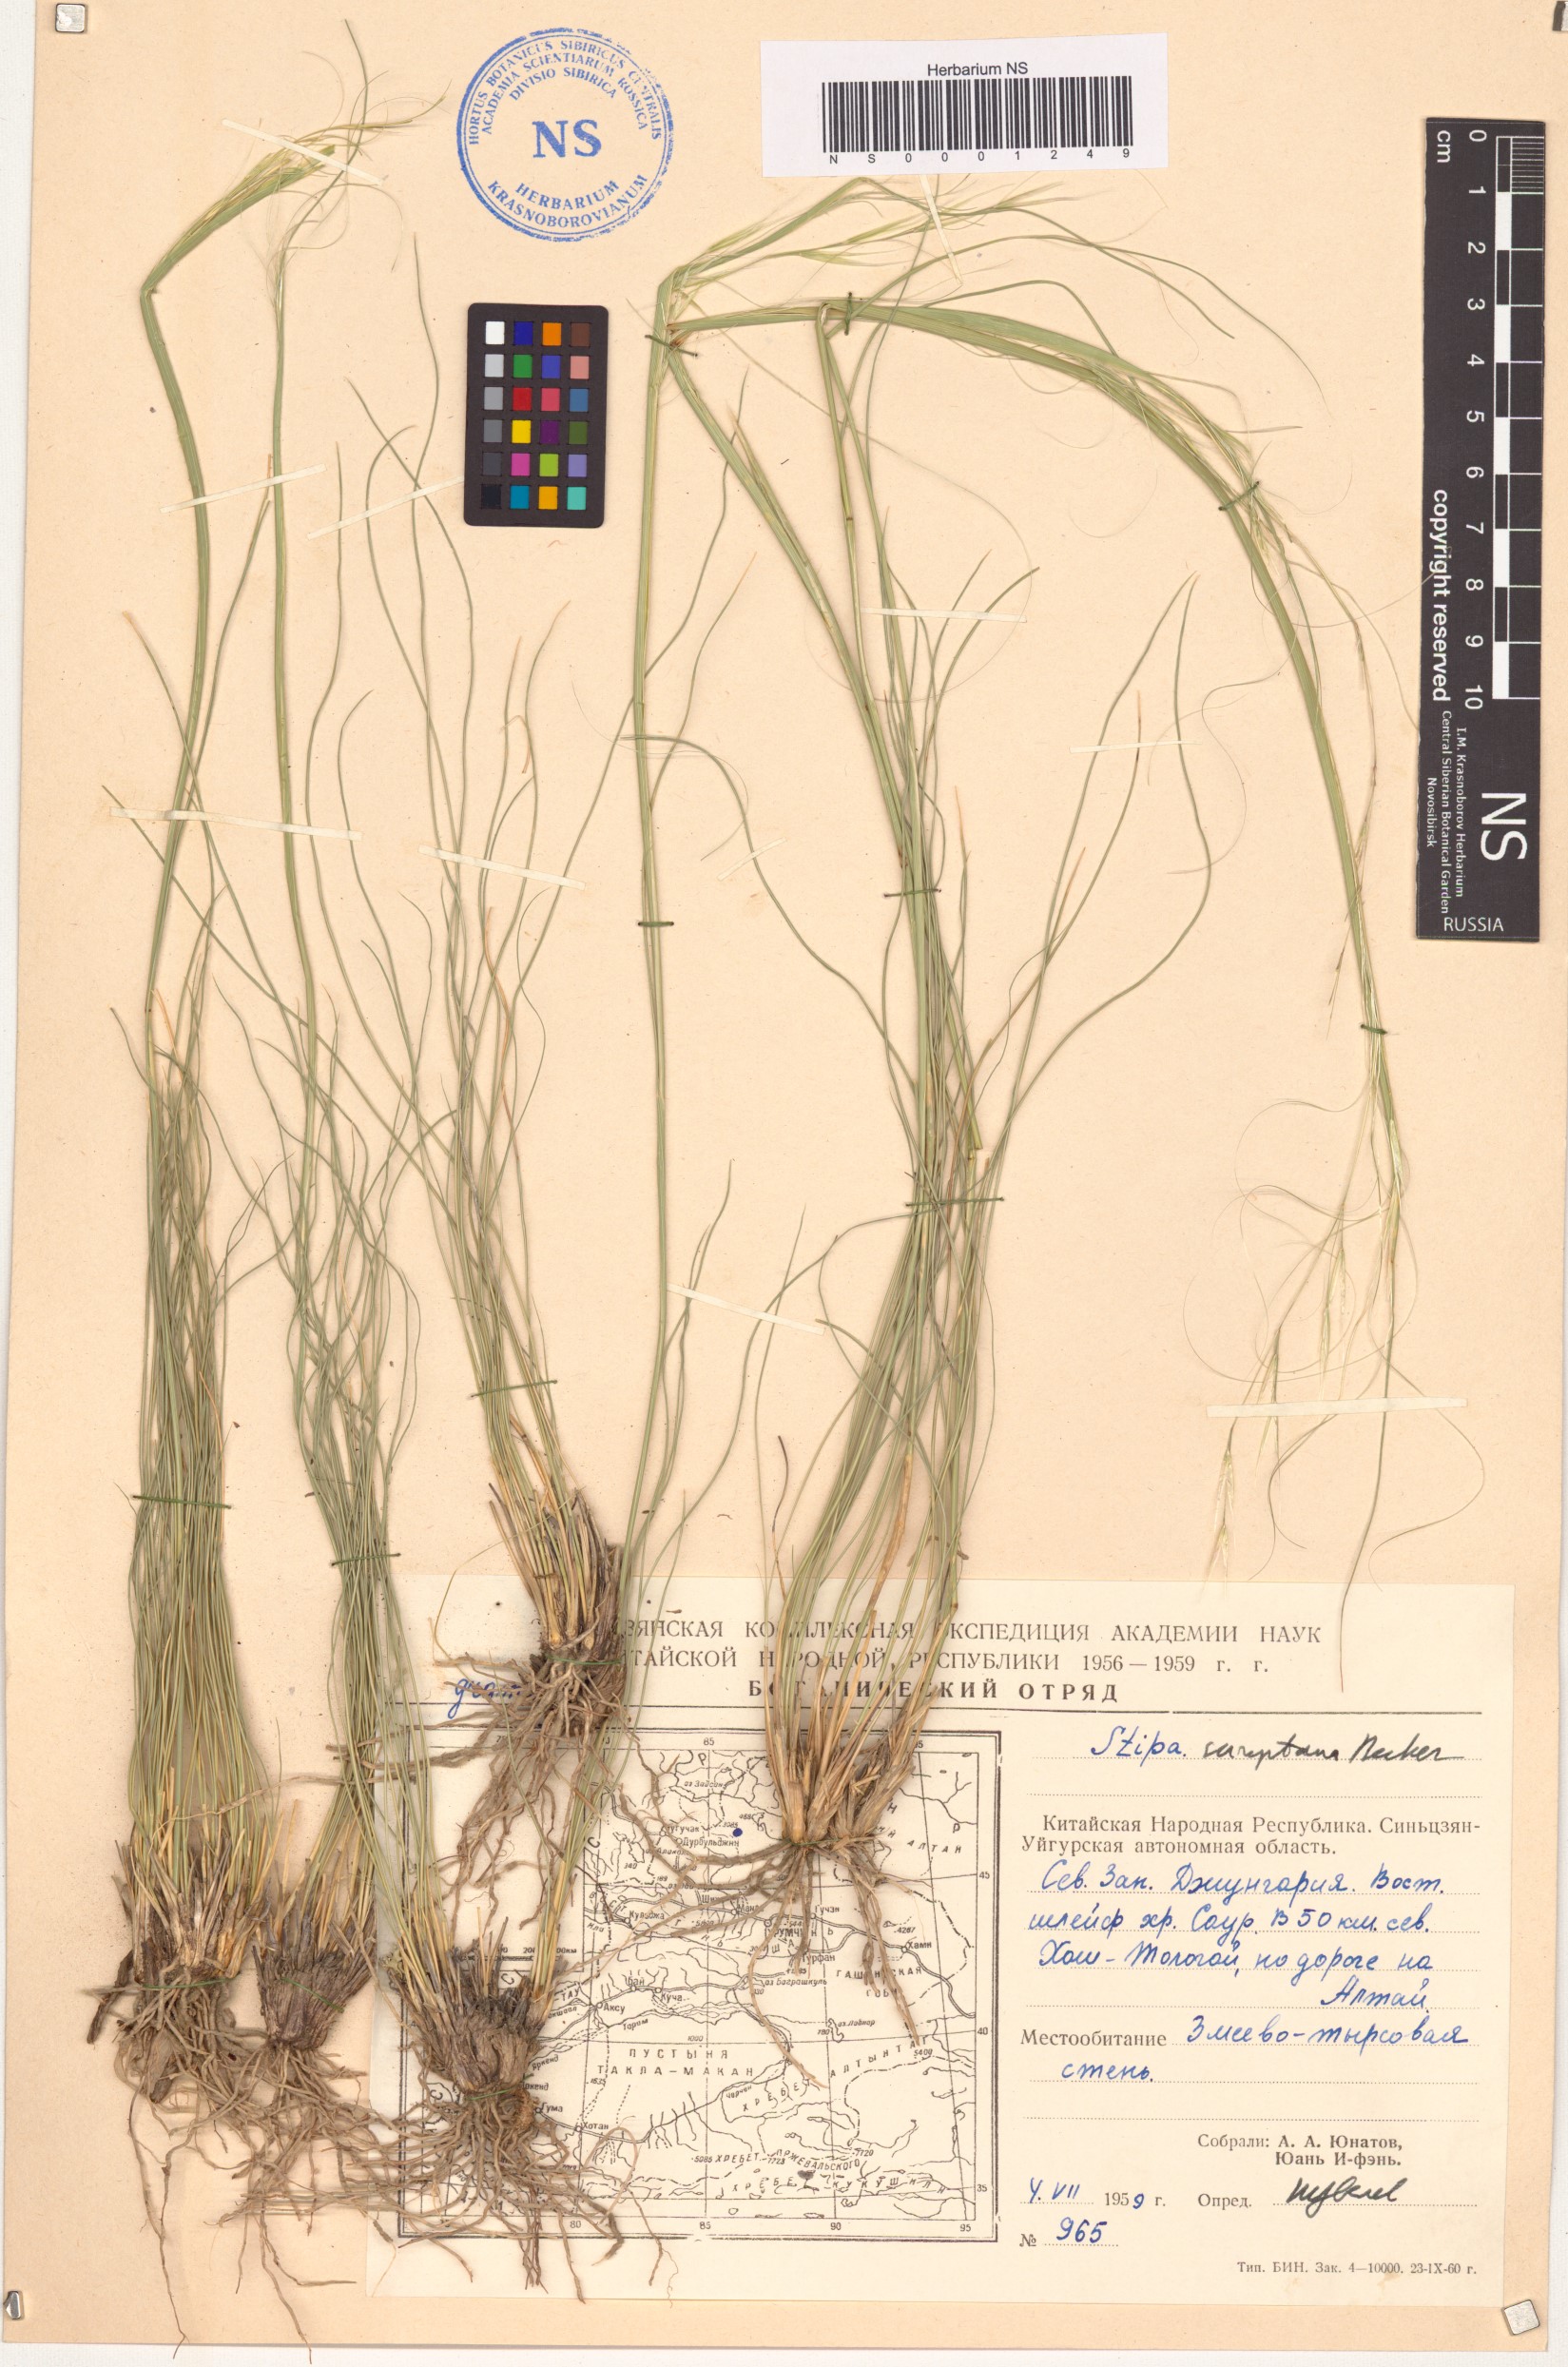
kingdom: Plantae
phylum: Tracheophyta
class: Liliopsida
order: Poales
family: Poaceae
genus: Stipa
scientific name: Stipa sareptana
